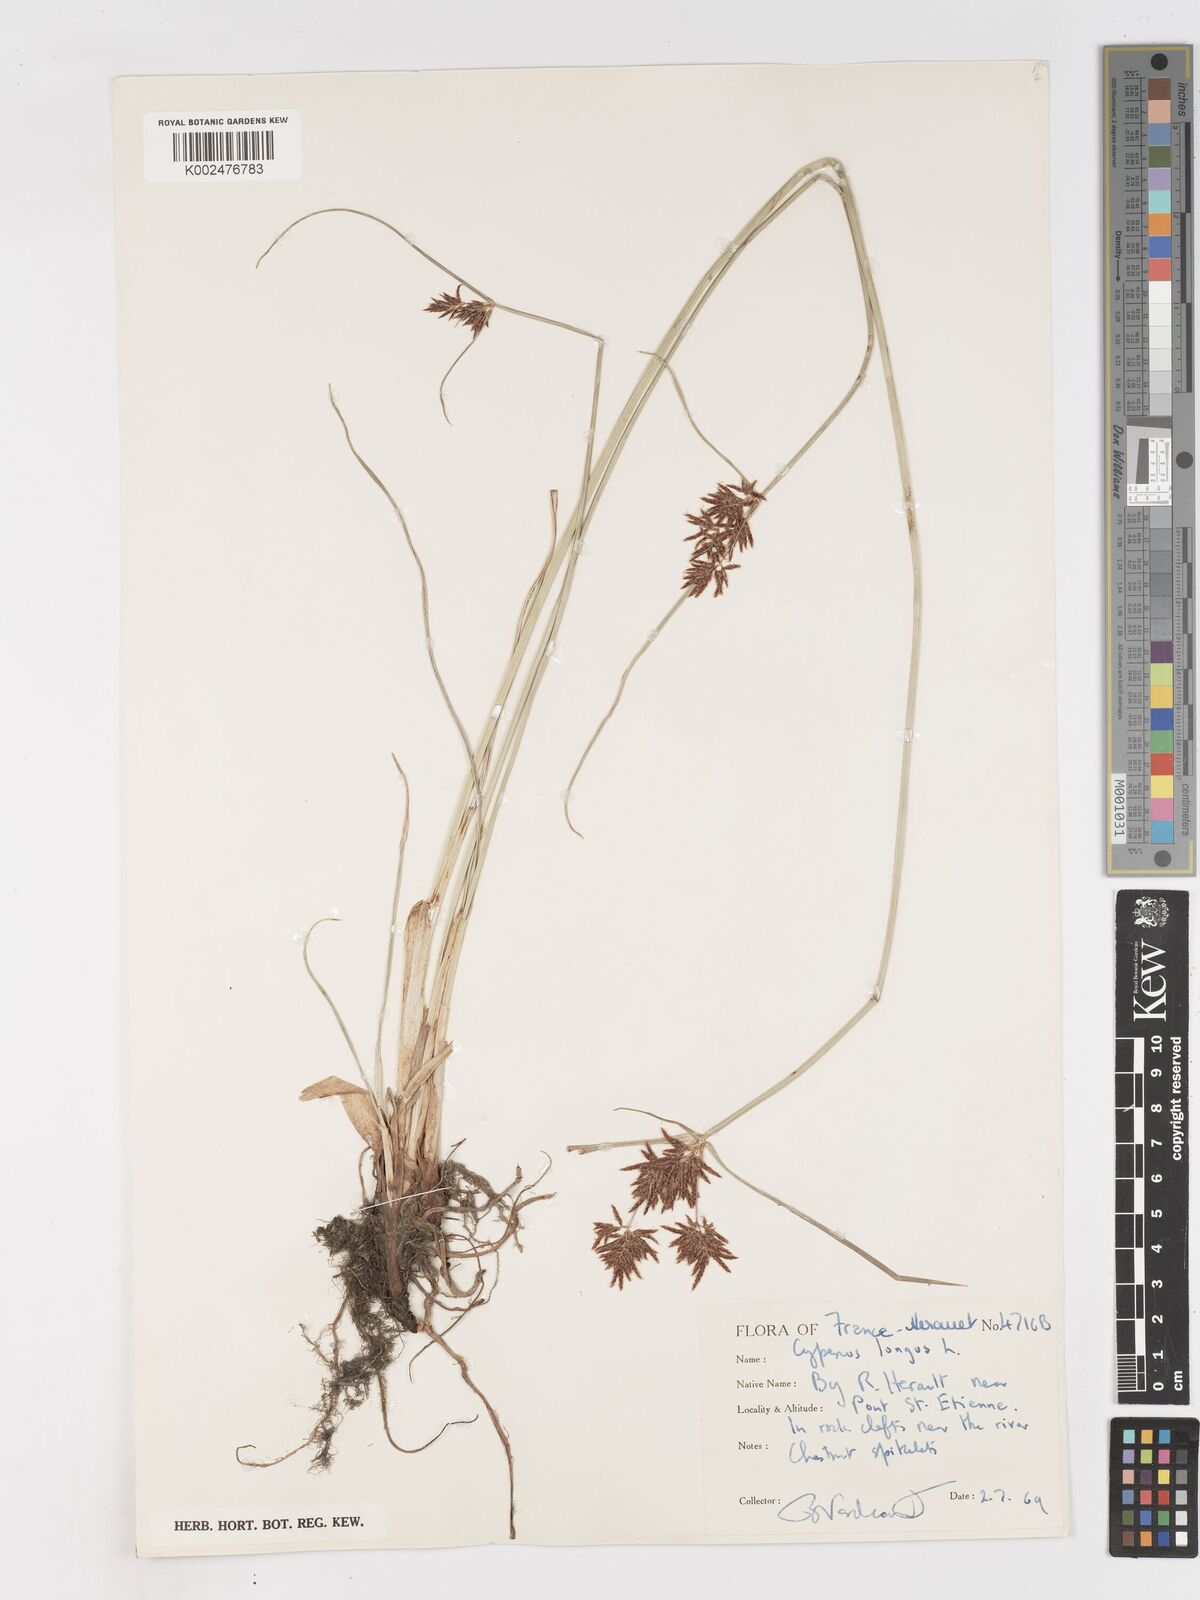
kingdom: Plantae
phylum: Tracheophyta
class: Liliopsida
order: Poales
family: Cyperaceae
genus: Cyperus
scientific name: Cyperus longus
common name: Galingale
